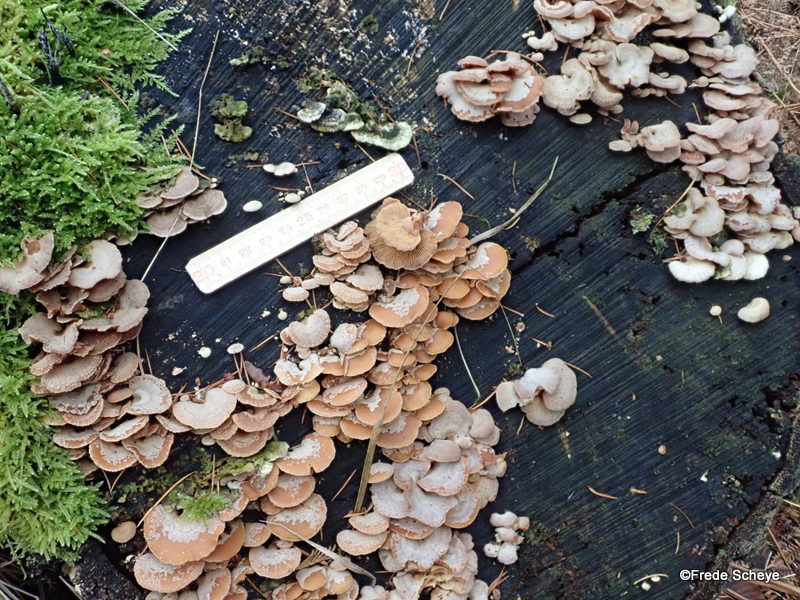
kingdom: Fungi
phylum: Basidiomycota
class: Agaricomycetes
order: Agaricales
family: Mycenaceae
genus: Panellus
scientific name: Panellus stipticus
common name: kliddet epaulethat
